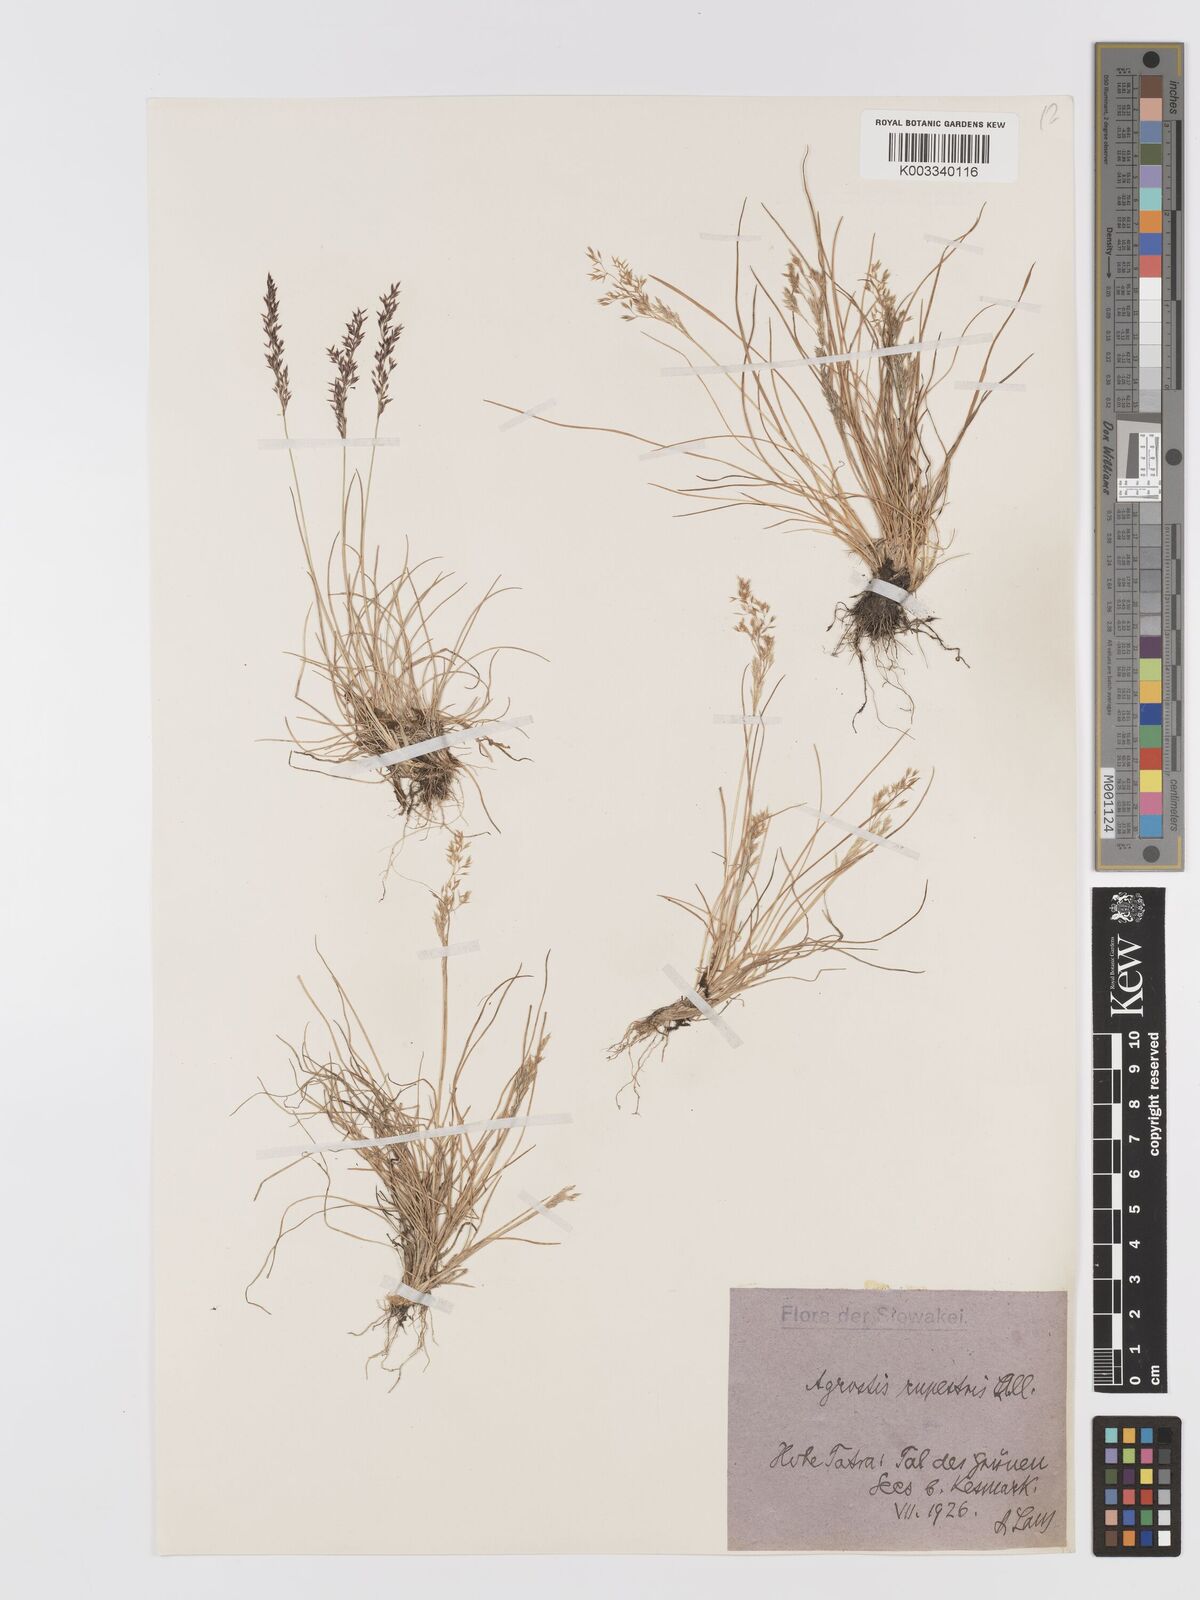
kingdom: Plantae
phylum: Tracheophyta
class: Liliopsida
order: Poales
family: Poaceae
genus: Agrostis
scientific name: Agrostis rupestris
